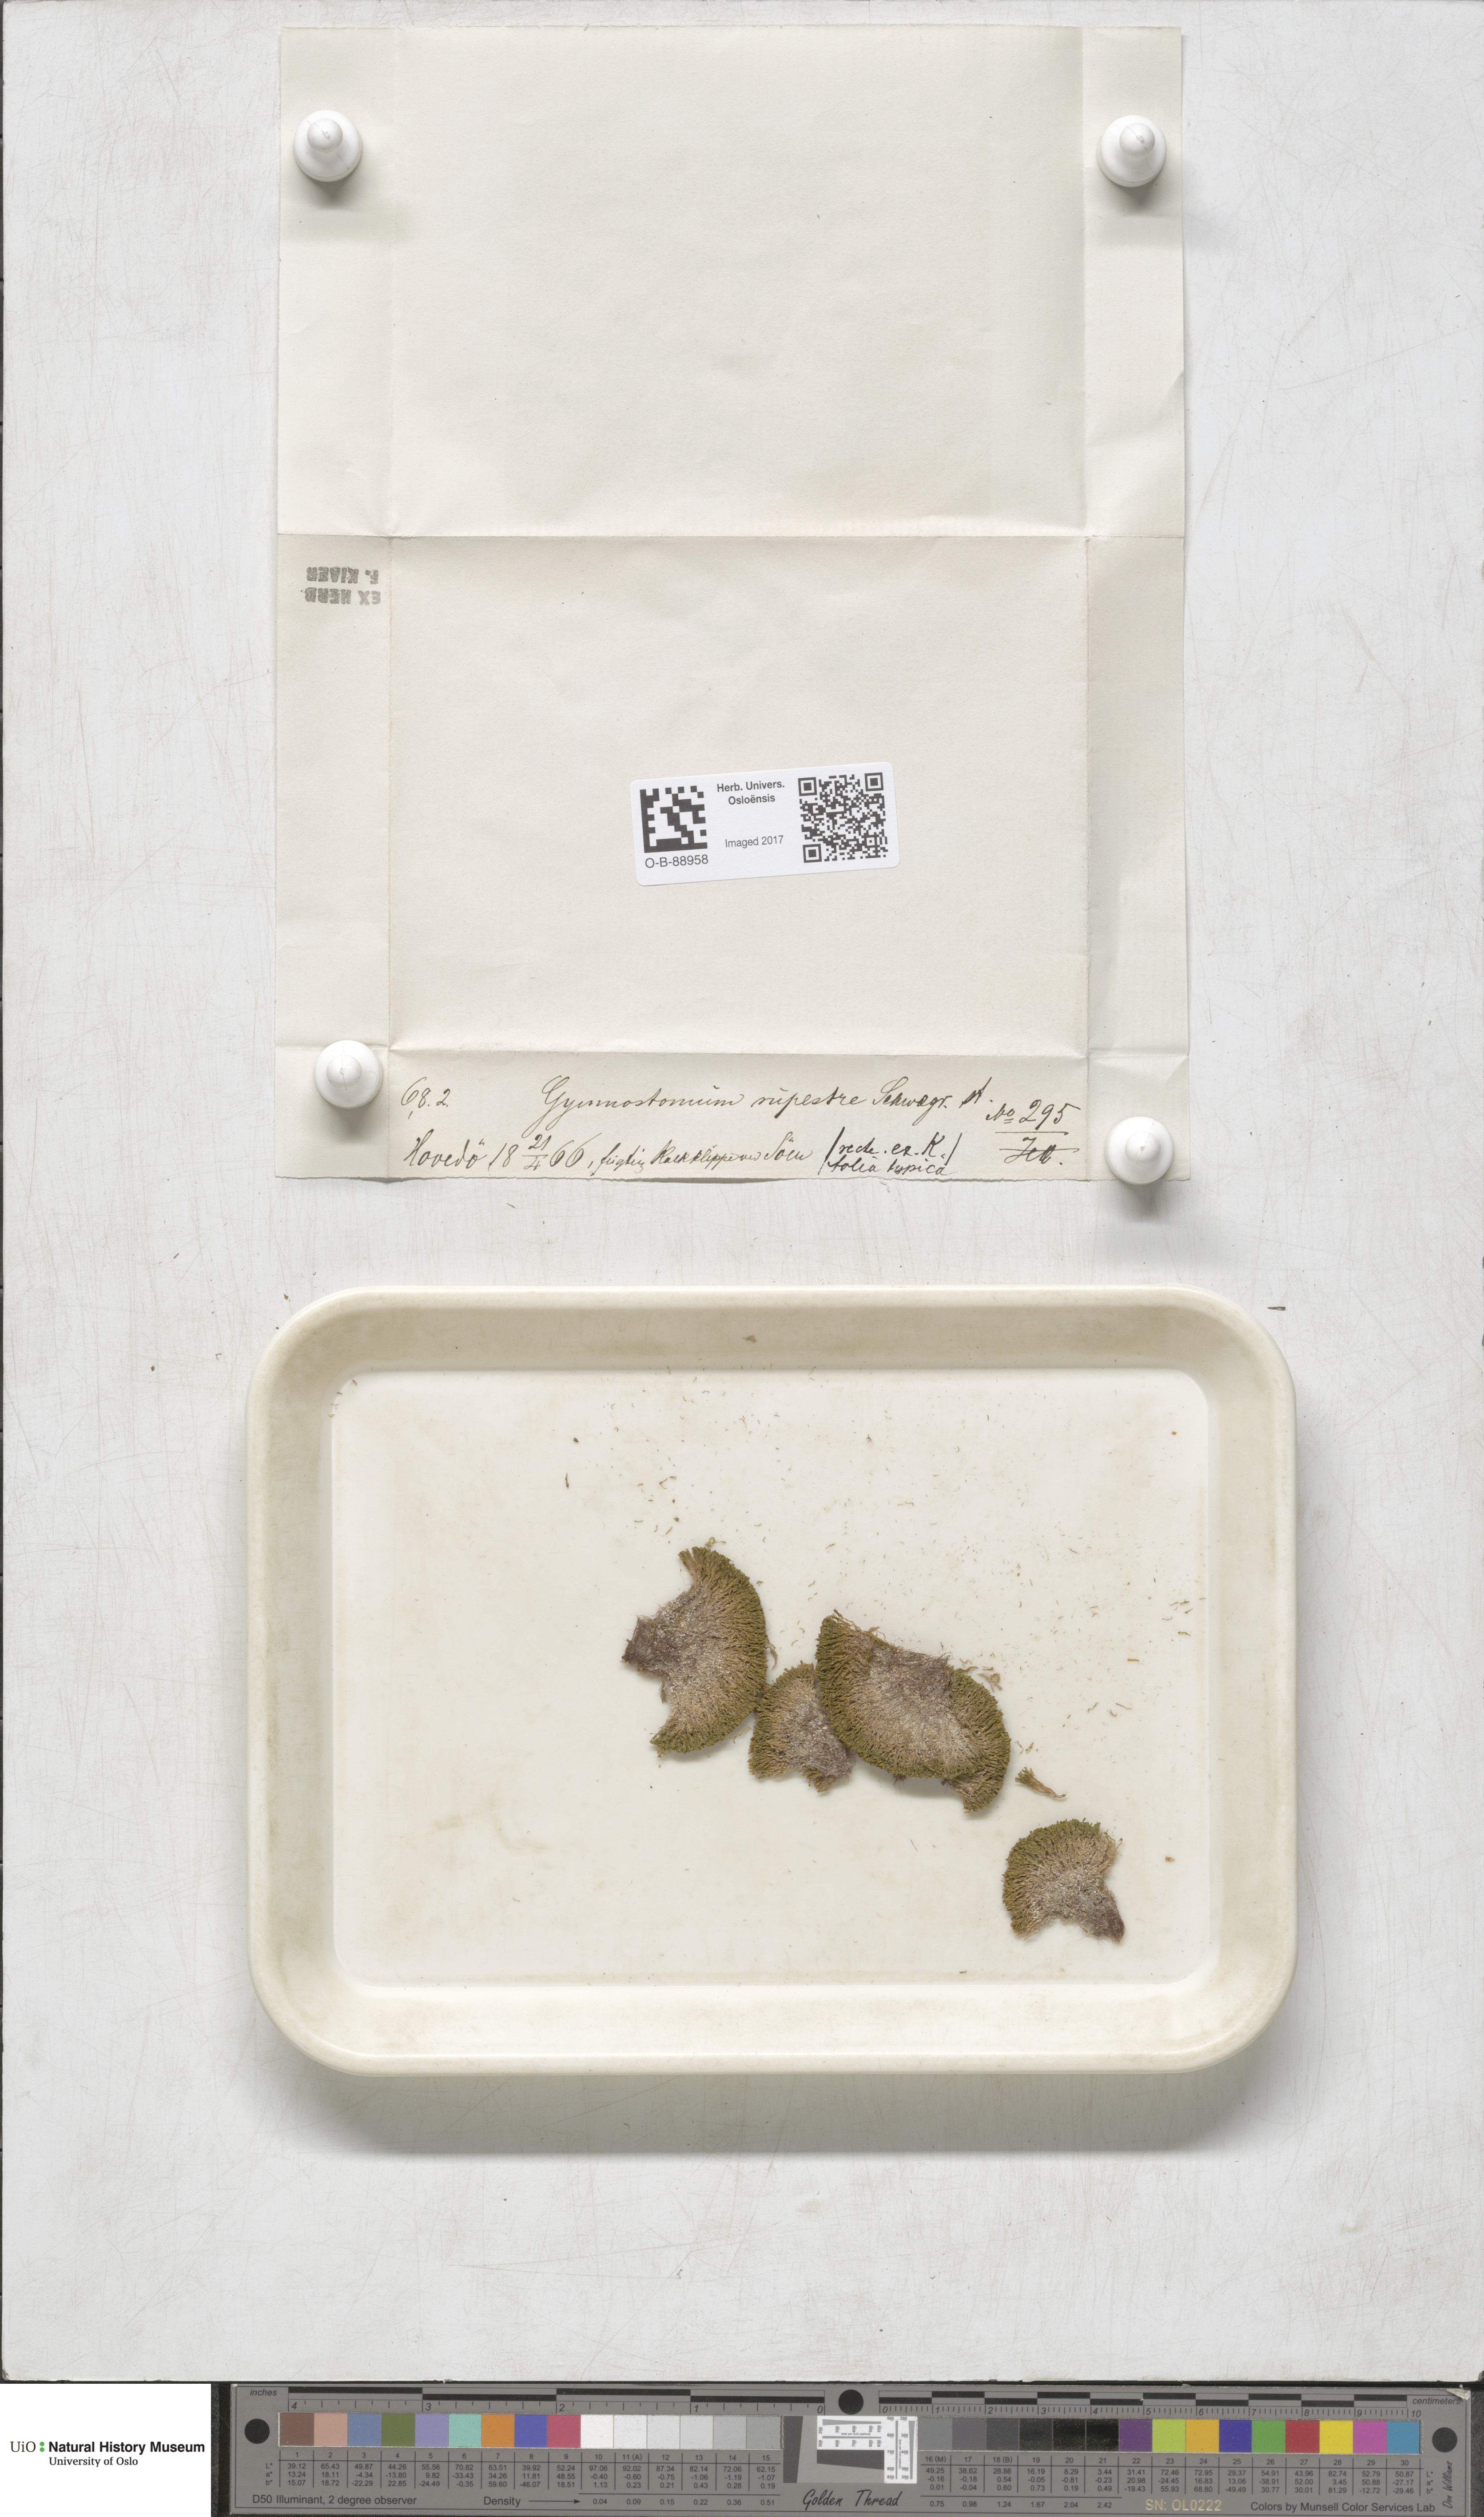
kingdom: Plantae
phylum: Bryophyta
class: Bryopsida
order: Pottiales
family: Pottiaceae
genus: Gymnostomum
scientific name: Gymnostomum aeruginosum
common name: Verdigris tufa-moss
